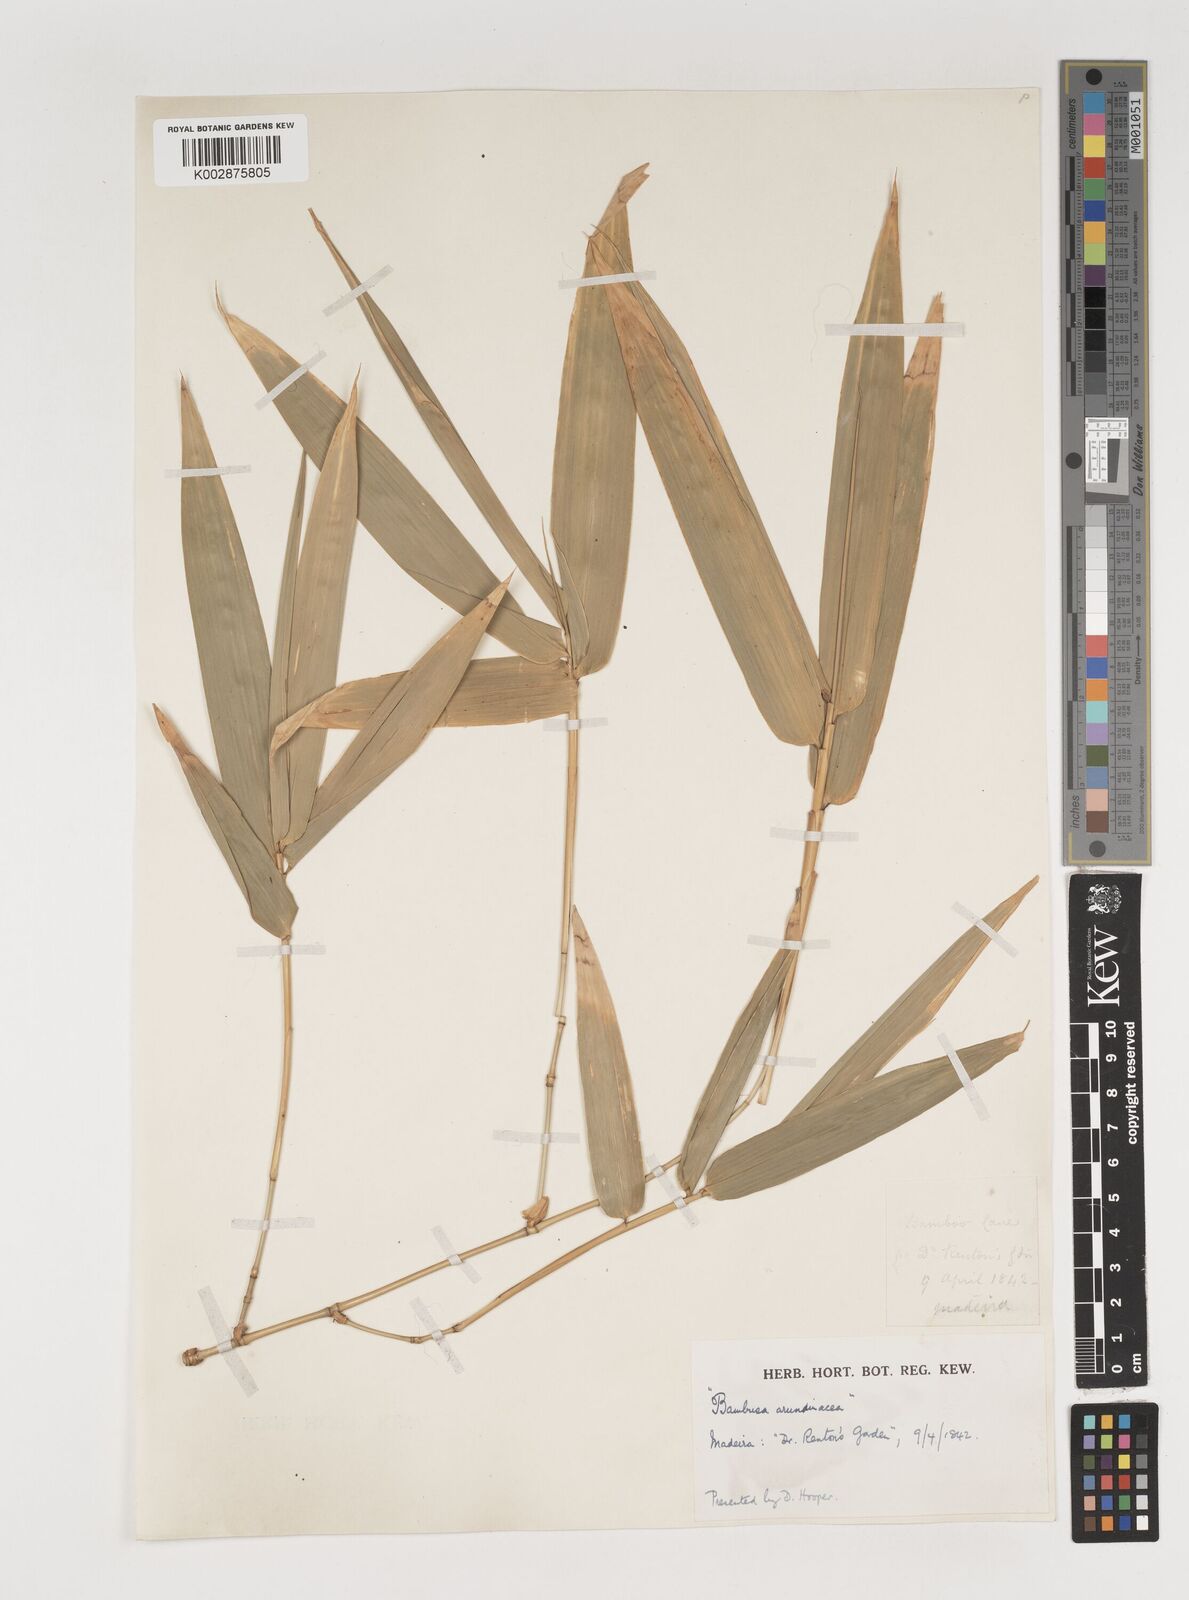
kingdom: Plantae
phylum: Tracheophyta
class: Liliopsida
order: Poales
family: Poaceae
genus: Bambusa
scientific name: Bambusa
